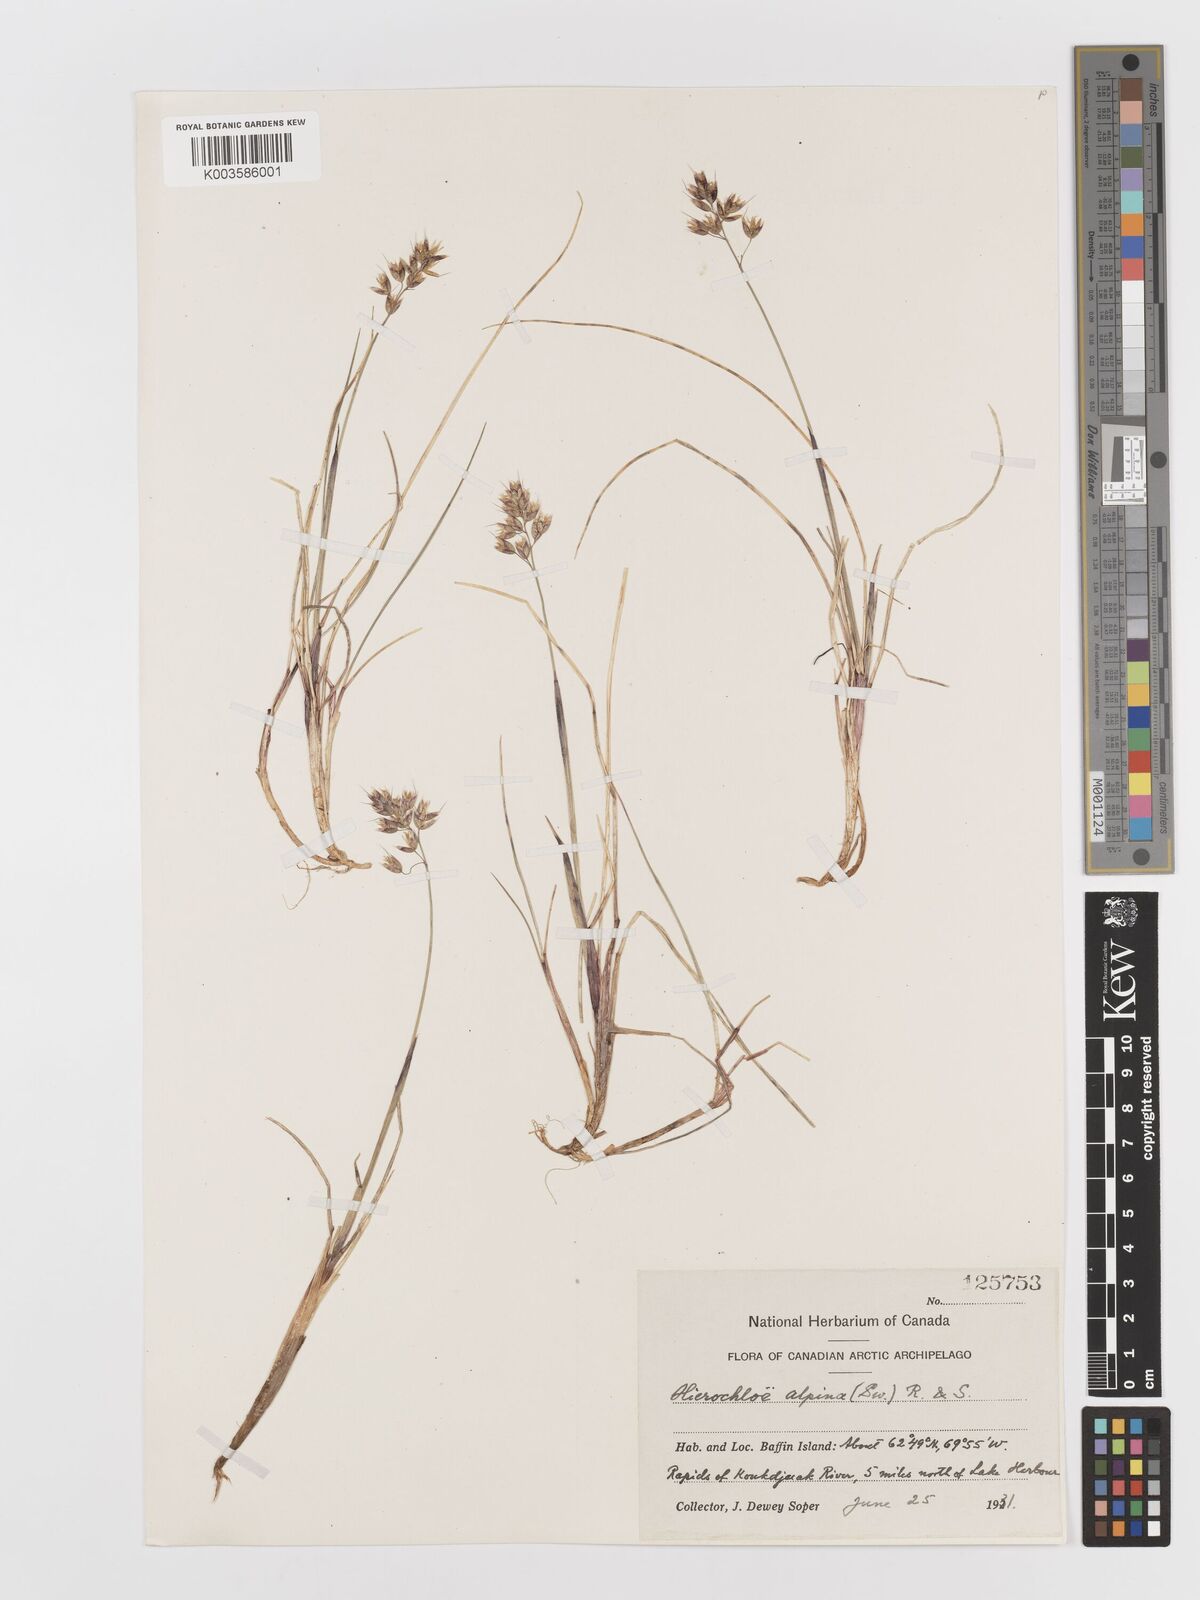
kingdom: Plantae
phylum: Tracheophyta
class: Liliopsida
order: Poales
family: Poaceae
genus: Anthoxanthum
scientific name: Anthoxanthum monticola
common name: Alpine sweetgrass
